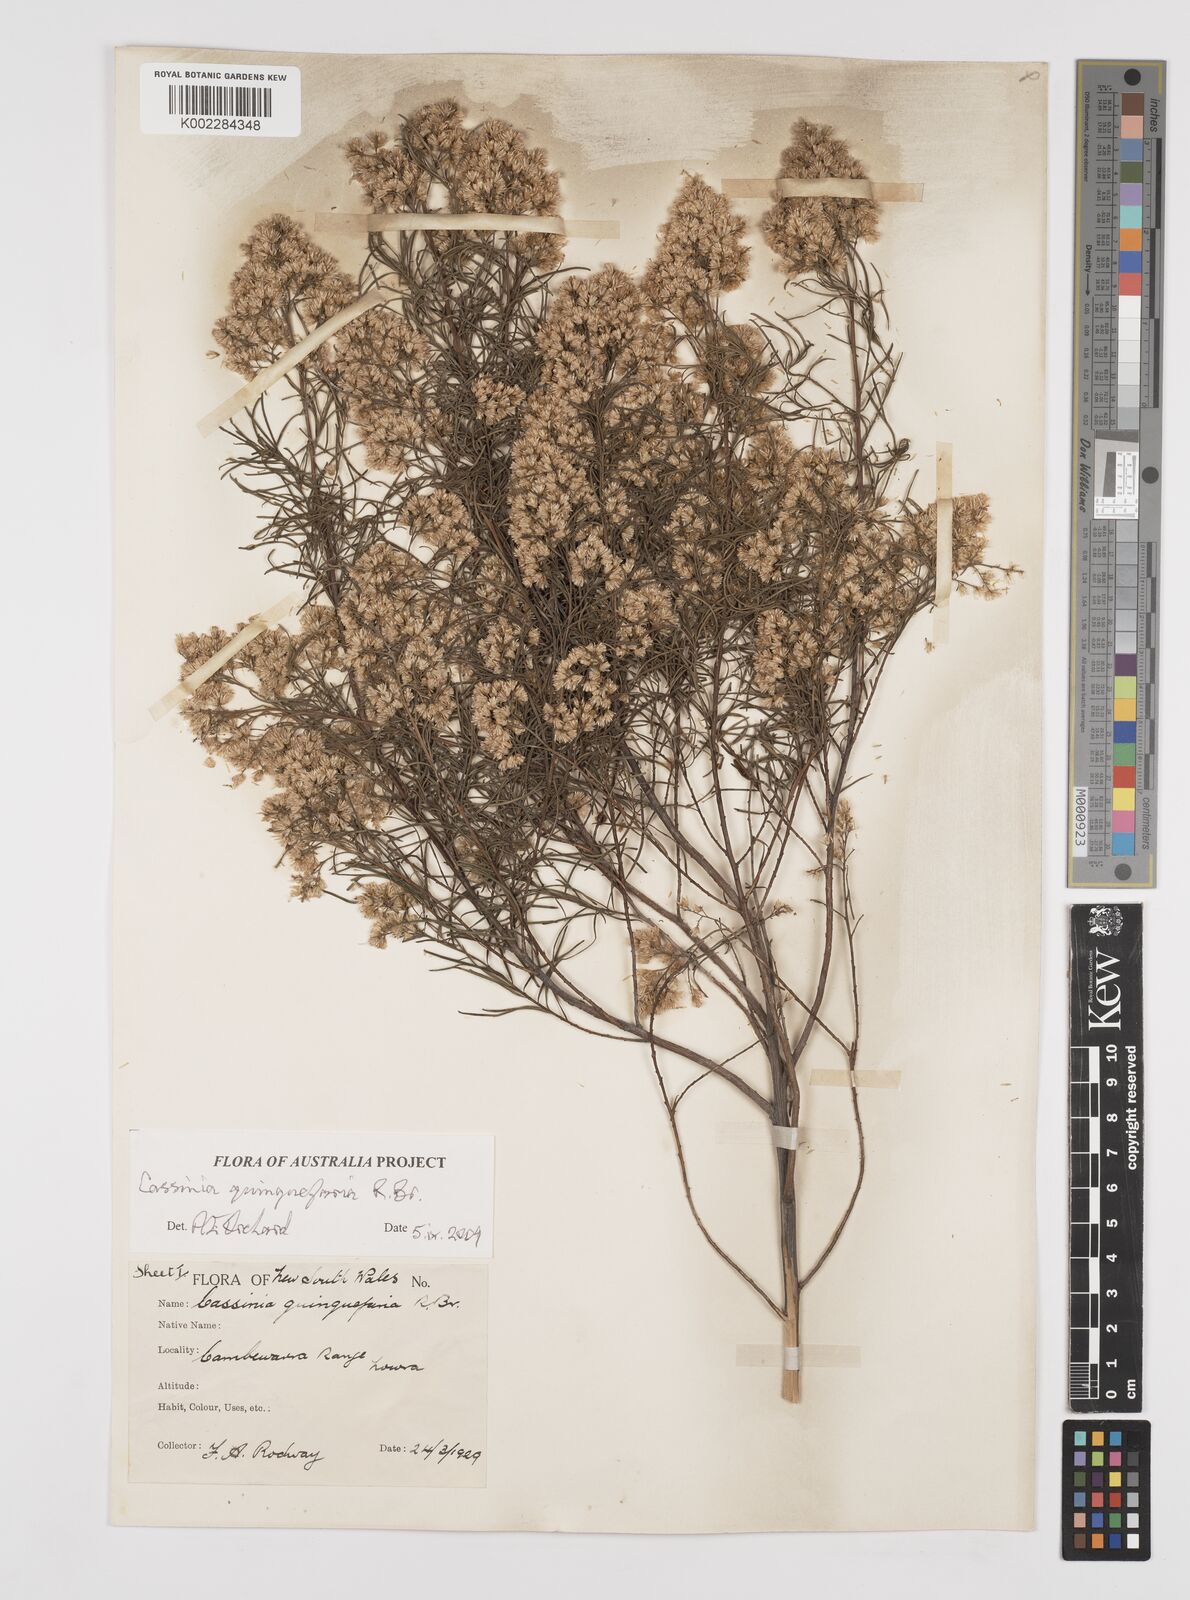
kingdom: Plantae
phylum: Tracheophyta
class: Magnoliopsida
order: Asterales
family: Asteraceae
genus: Cassinia
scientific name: Cassinia quinquefaria
